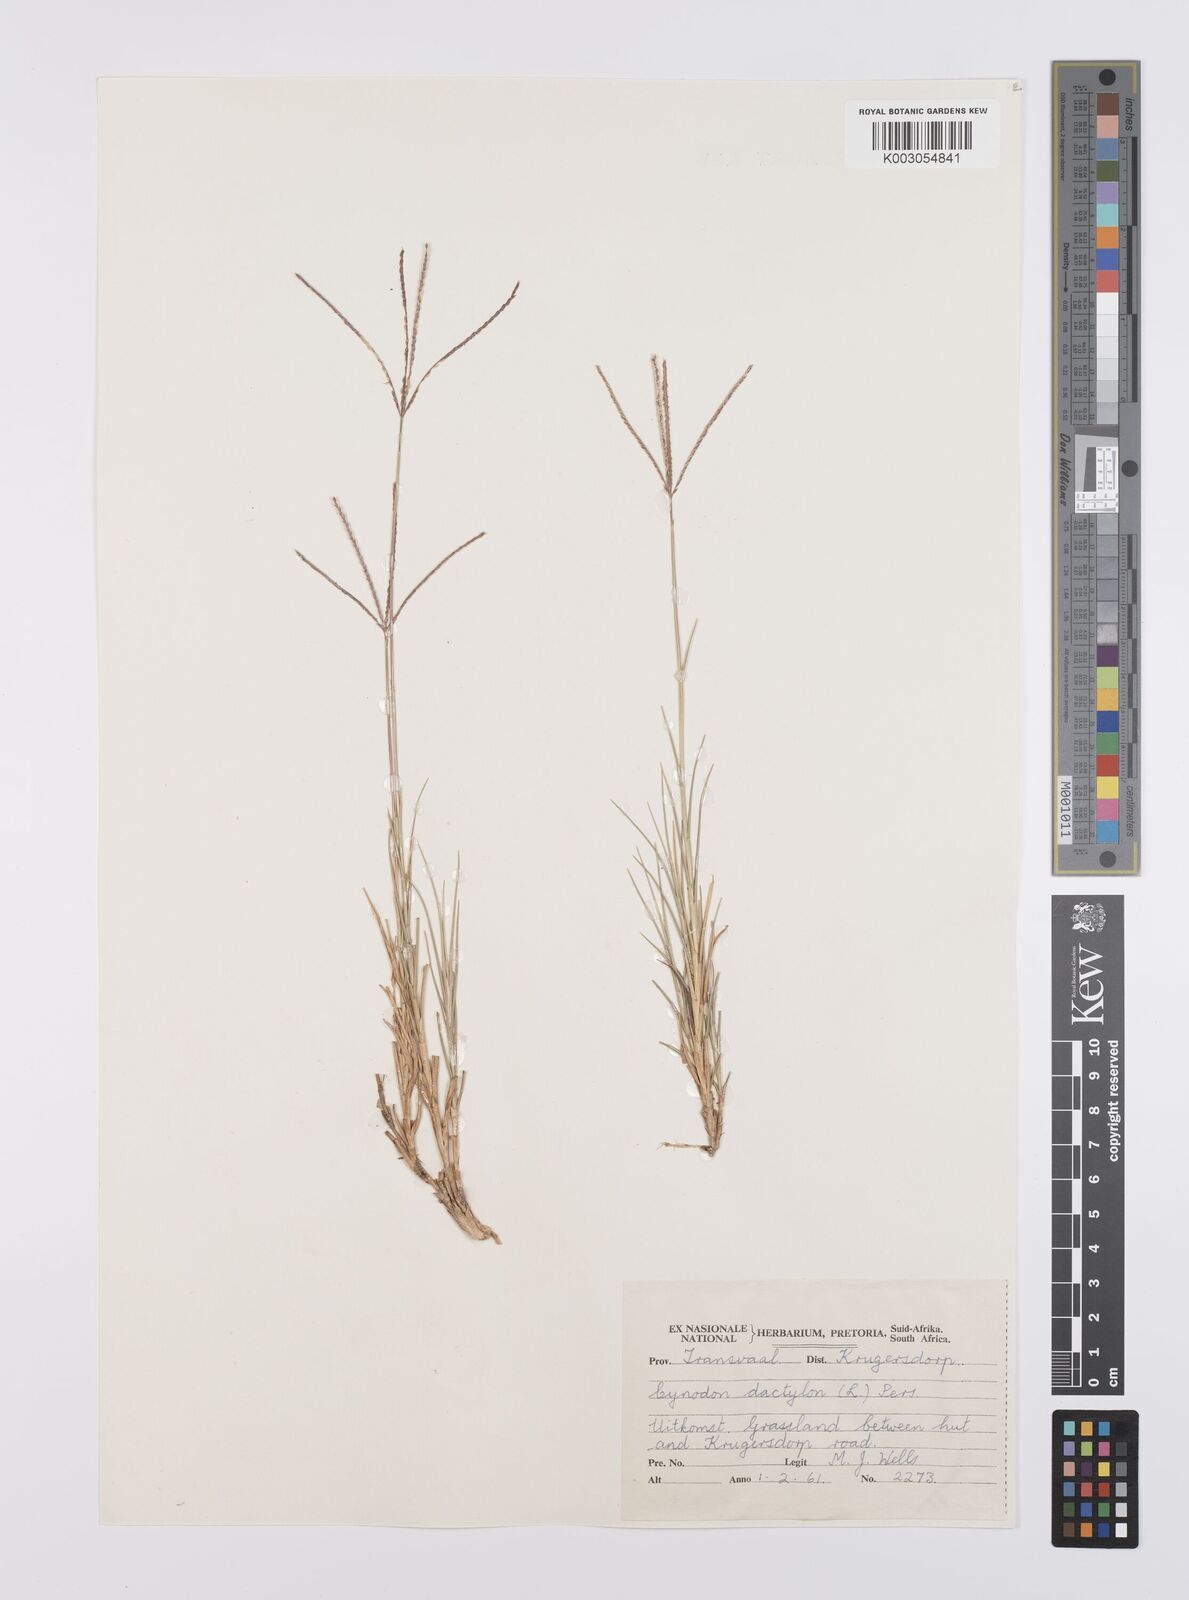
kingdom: Plantae
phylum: Tracheophyta
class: Liliopsida
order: Poales
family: Poaceae
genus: Cynodon
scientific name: Cynodon dactylon
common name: Bermuda grass
